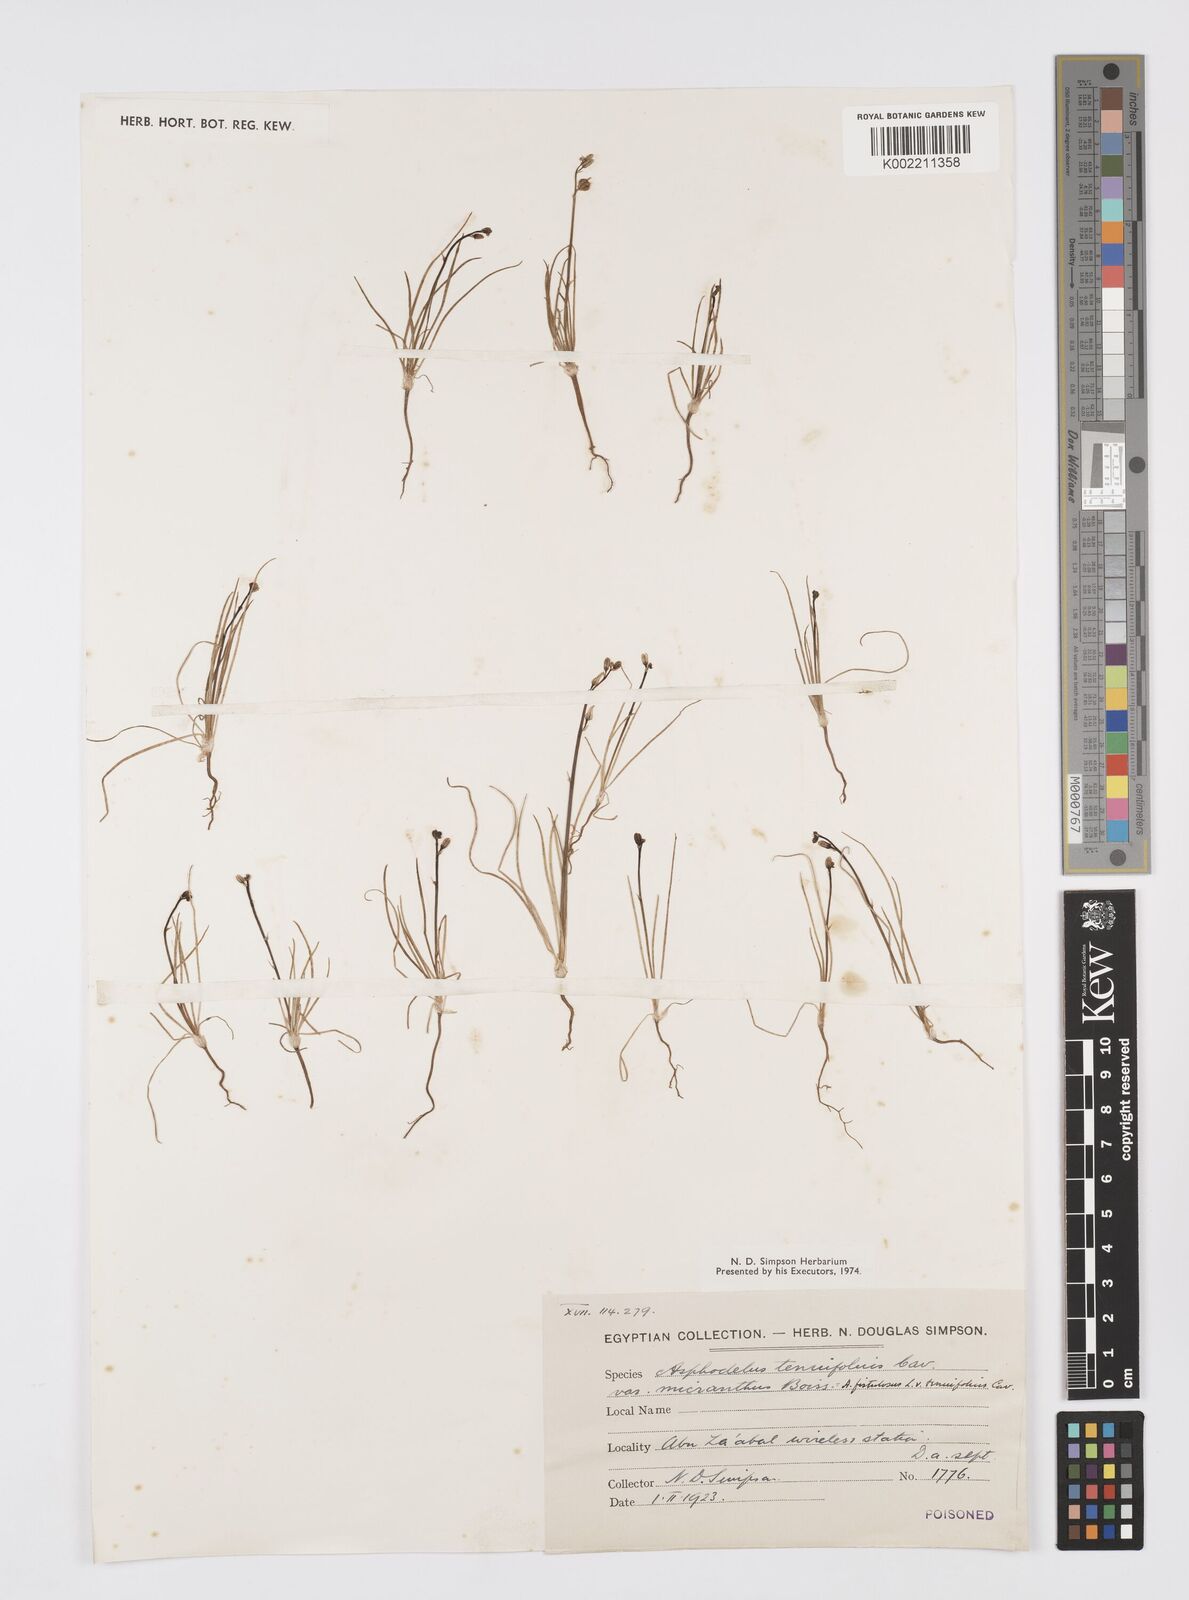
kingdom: Plantae
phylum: Tracheophyta
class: Liliopsida
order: Asparagales
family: Asphodelaceae
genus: Asphodelus
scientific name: Asphodelus tenuifolius
